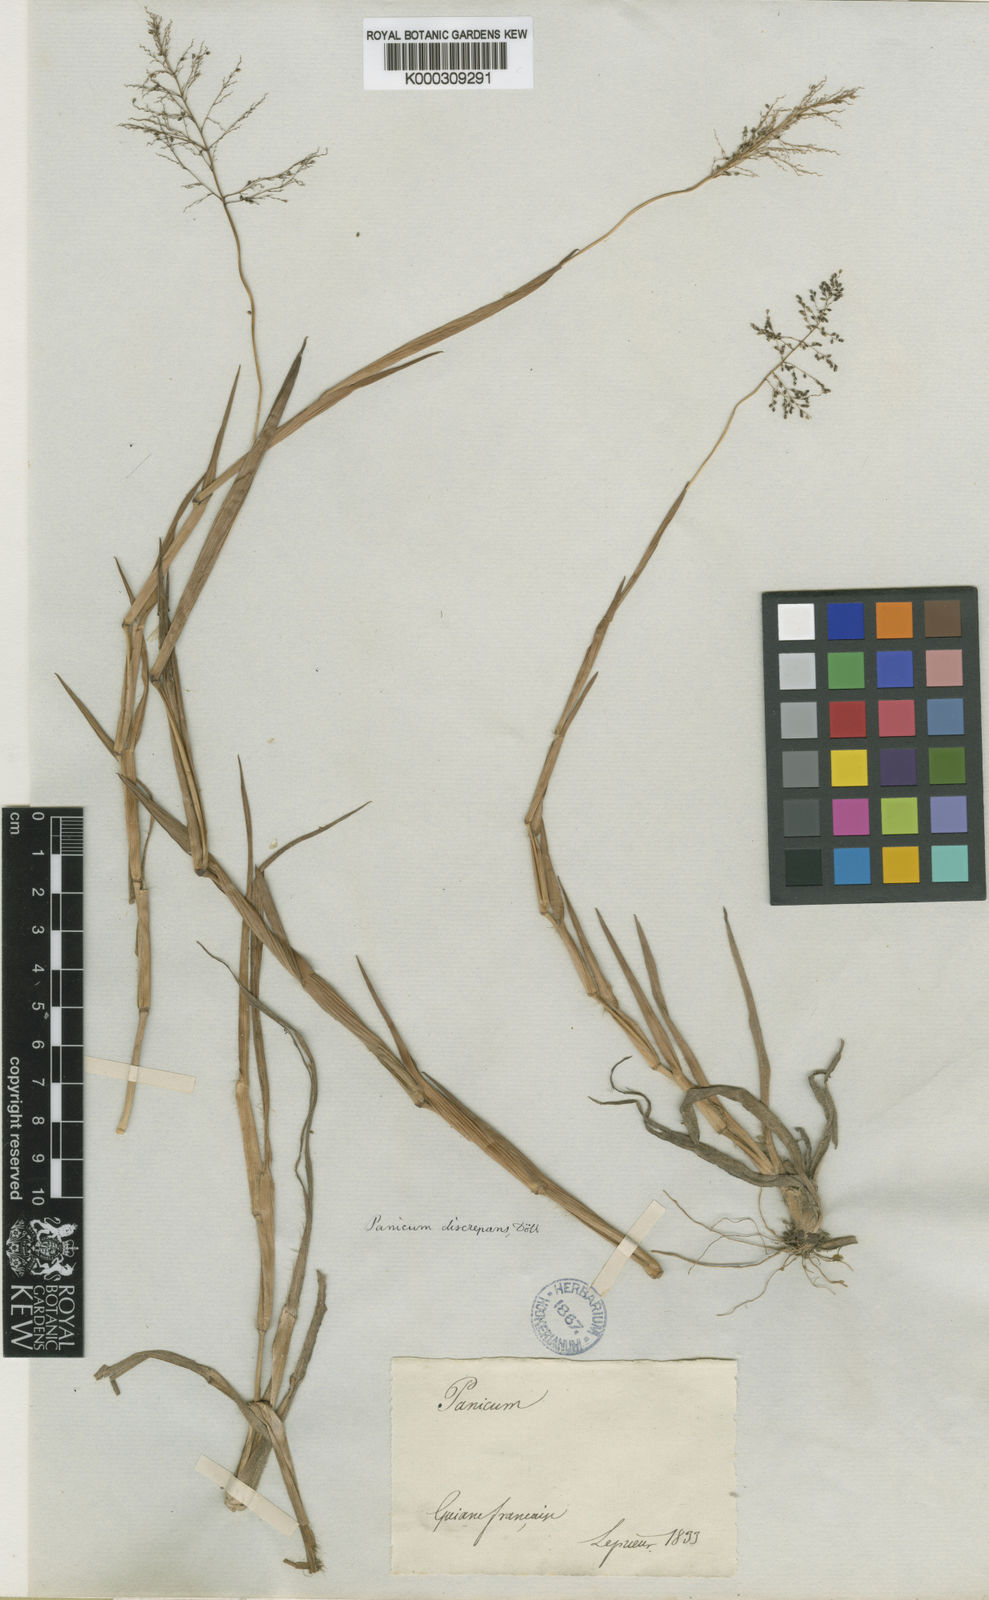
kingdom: Plantae
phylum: Tracheophyta
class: Liliopsida
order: Poales
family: Poaceae
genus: Panicum
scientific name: Panicum
